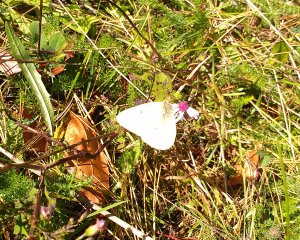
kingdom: Animalia
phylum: Arthropoda
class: Insecta
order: Lepidoptera
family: Pieridae
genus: Colias
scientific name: Colias philodice
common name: Clouded Sulphur
